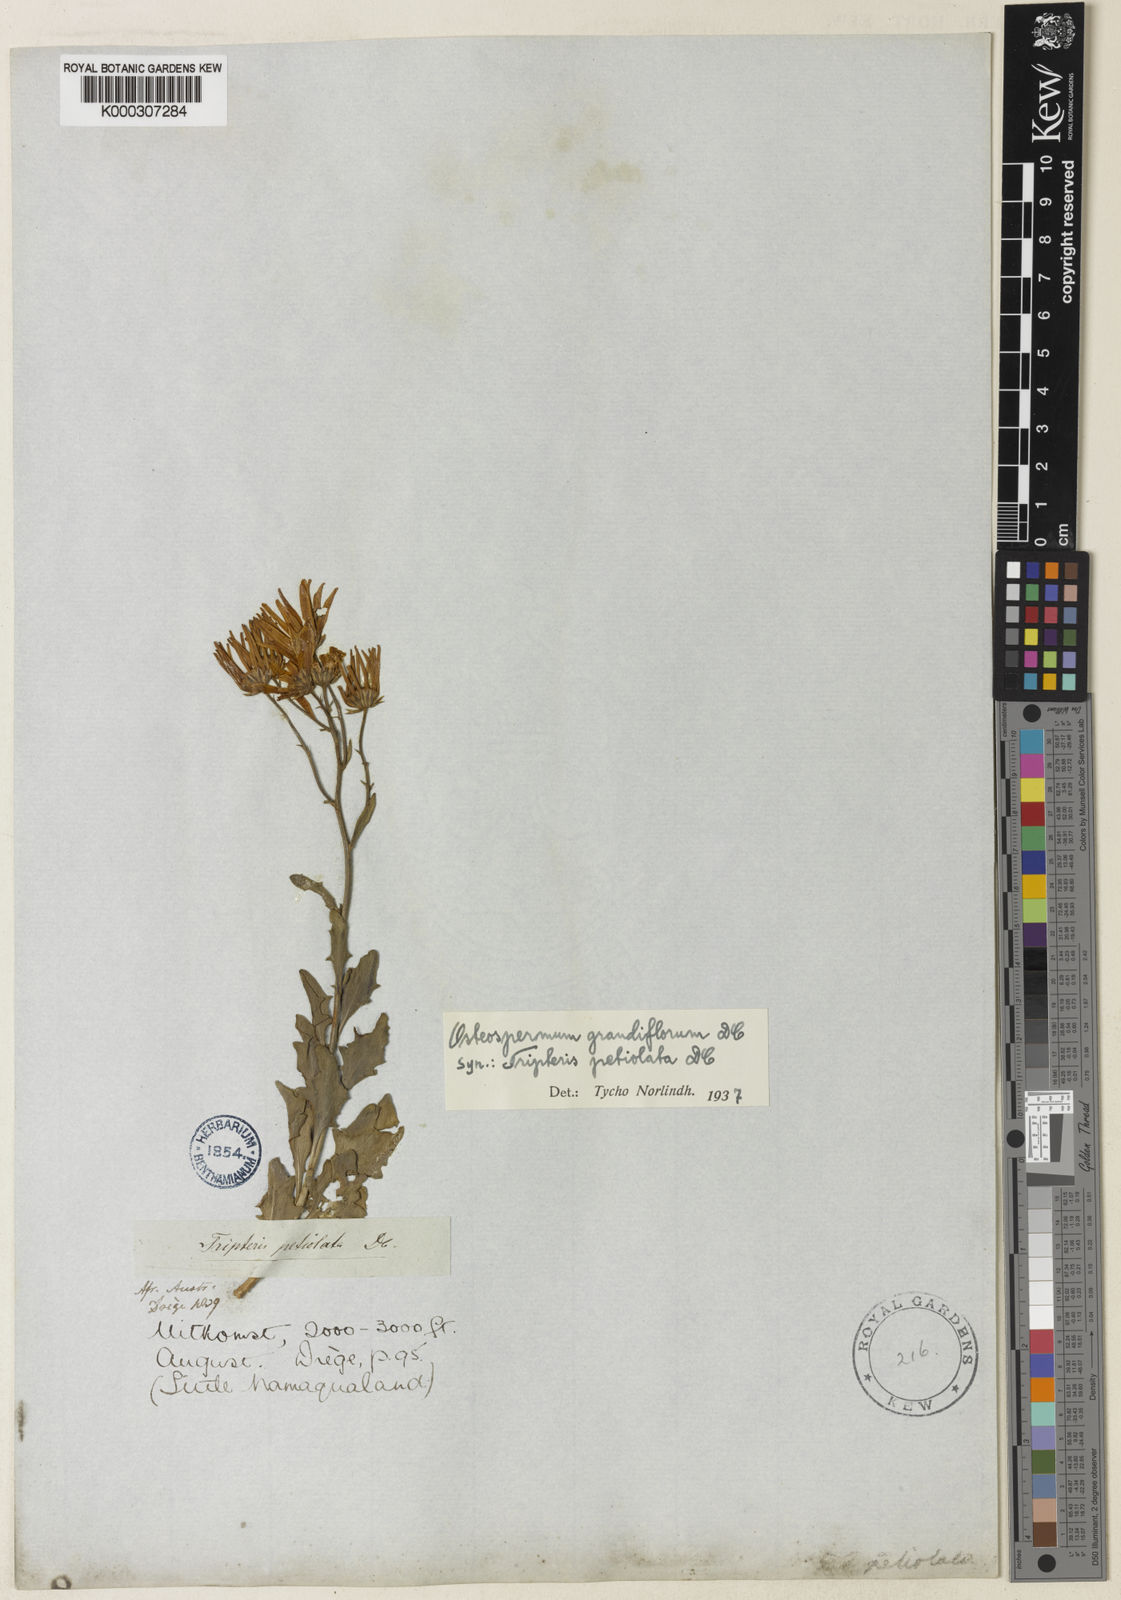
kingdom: Plantae
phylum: Tracheophyta
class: Magnoliopsida
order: Asterales
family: Asteraceae
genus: Osteospermum
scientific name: Osteospermum grandiflorum
